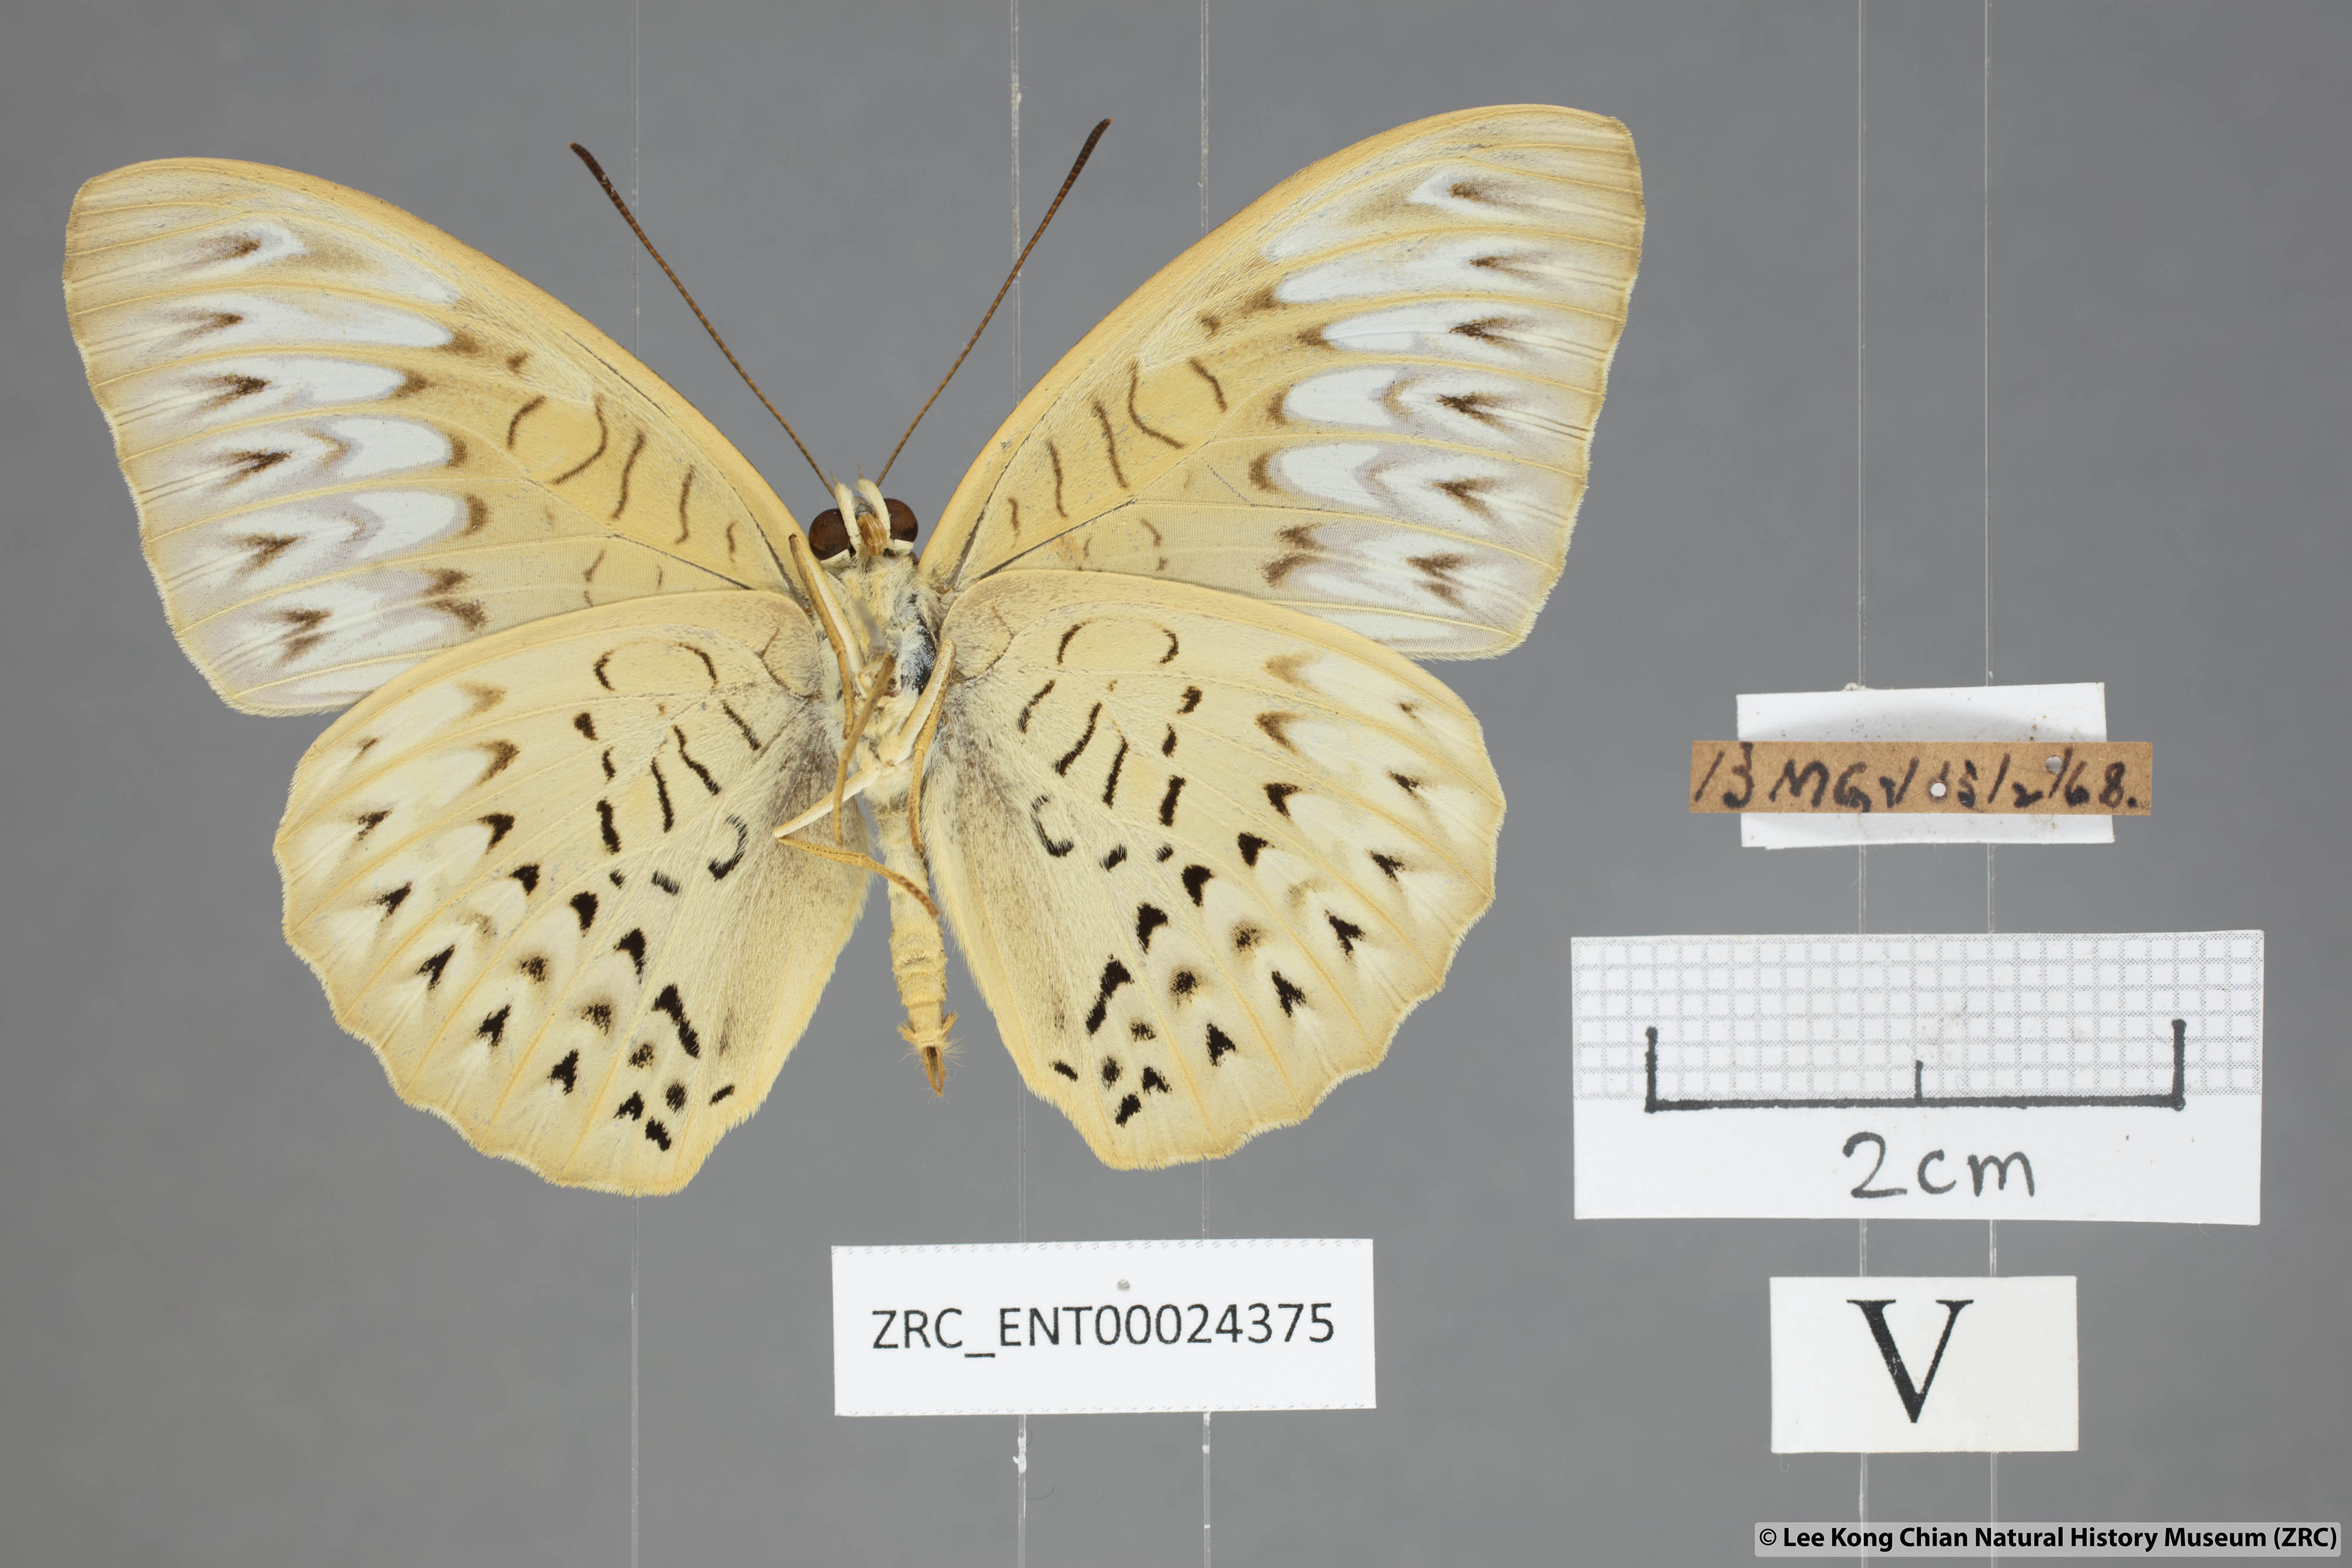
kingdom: Animalia
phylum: Arthropoda
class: Insecta
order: Lepidoptera
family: Nymphalidae
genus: Tanaecia
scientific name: Tanaecia aruna
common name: Short-banded viscount
